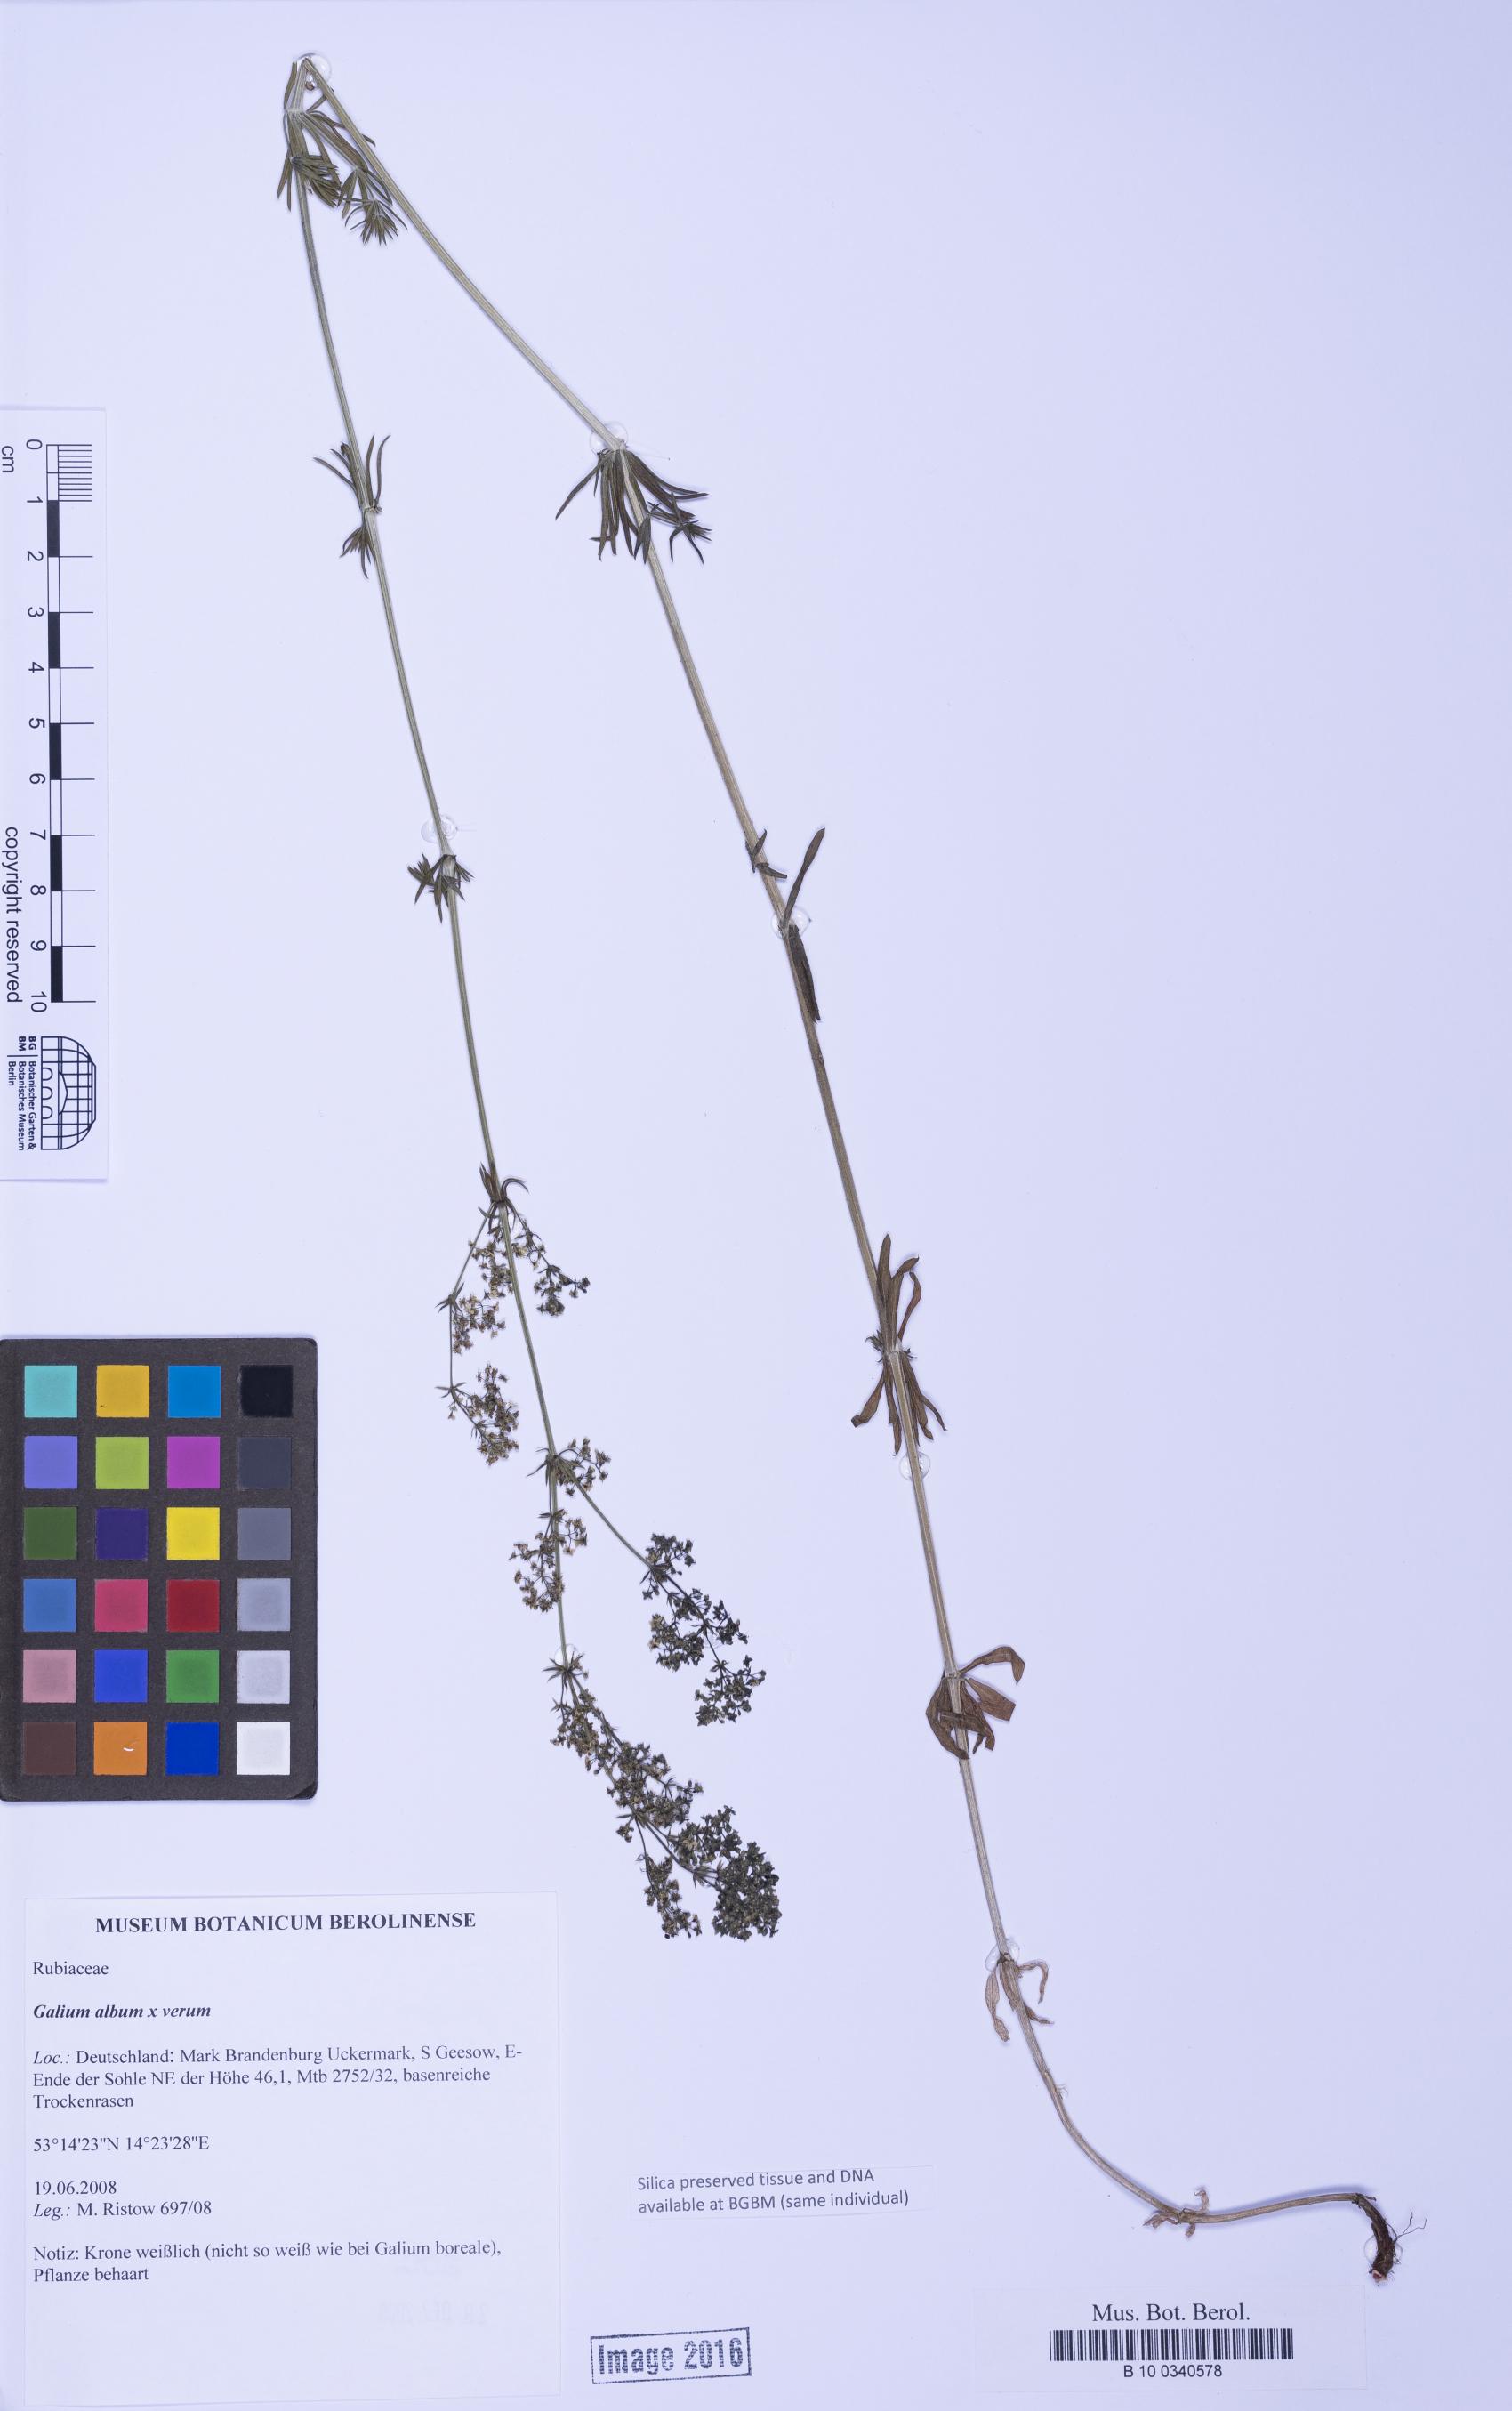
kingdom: Plantae
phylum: Tracheophyta
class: Magnoliopsida
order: Gentianales
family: Rubiaceae
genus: Galium
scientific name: Galium
